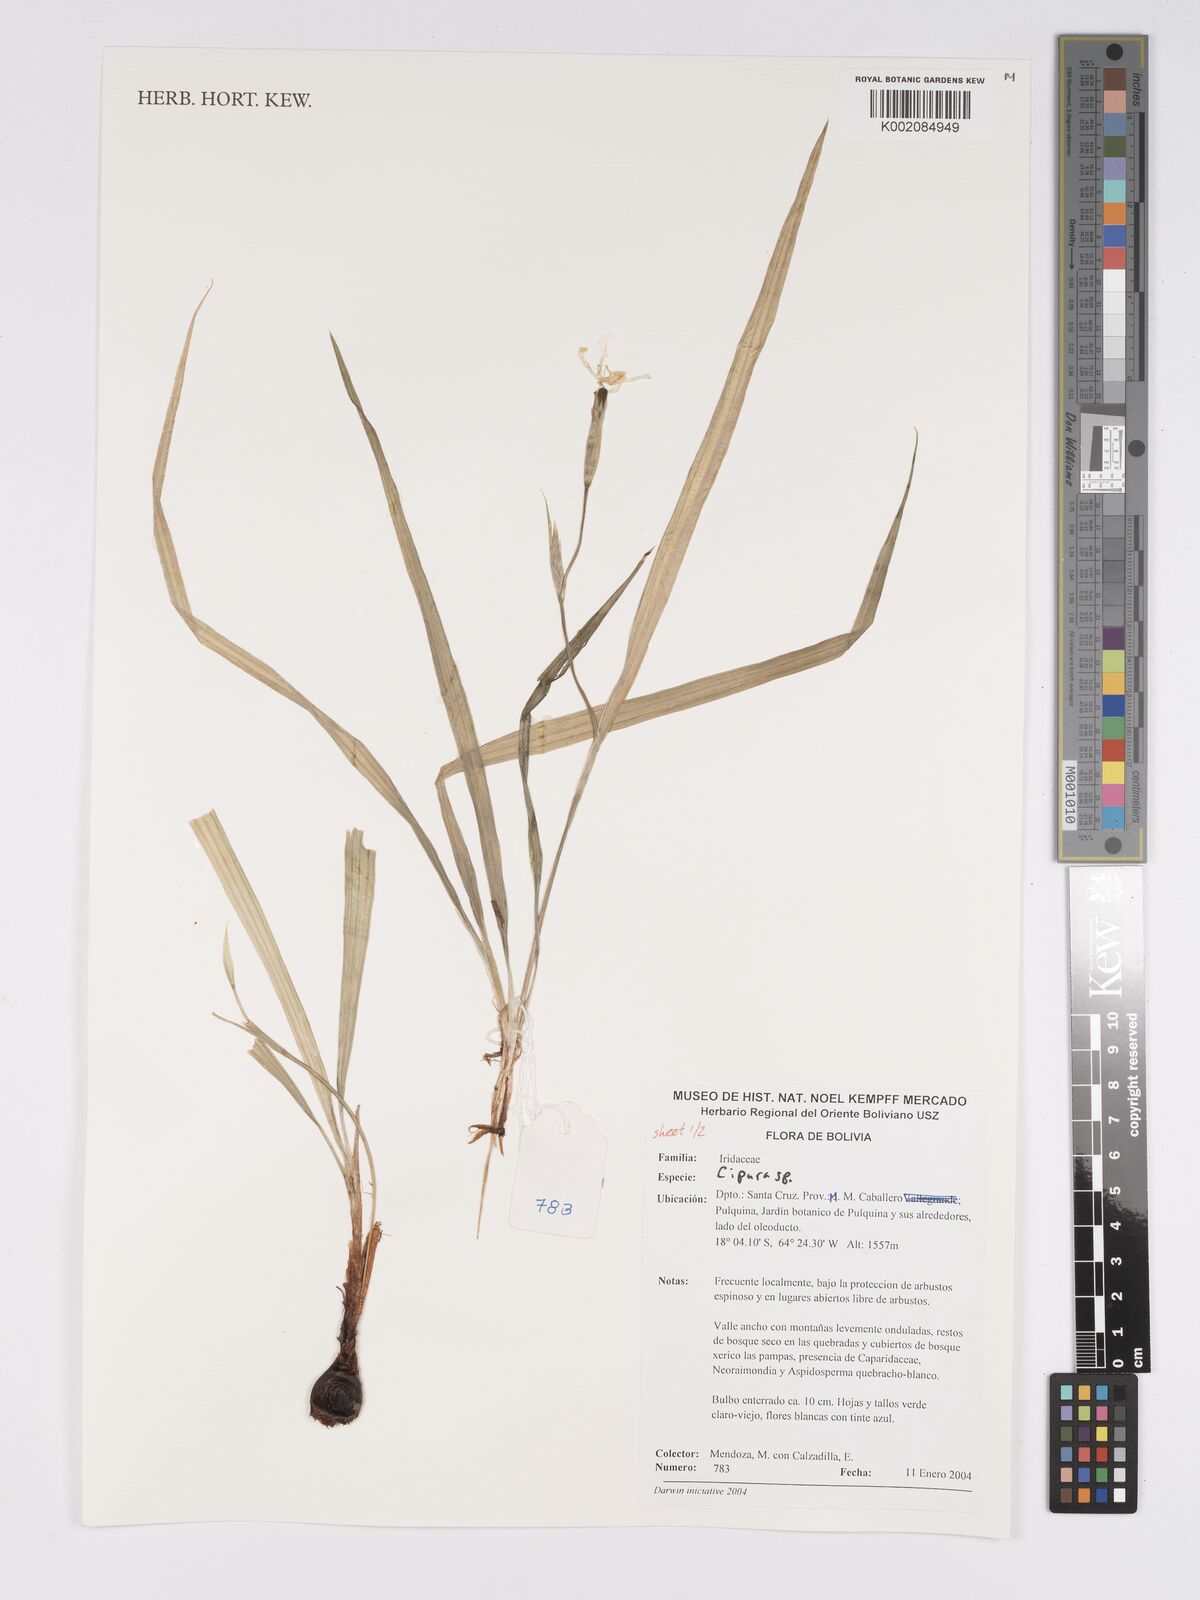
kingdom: Plantae
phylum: Tracheophyta
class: Liliopsida
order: Asparagales
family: Iridaceae
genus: Cipura
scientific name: Cipura
